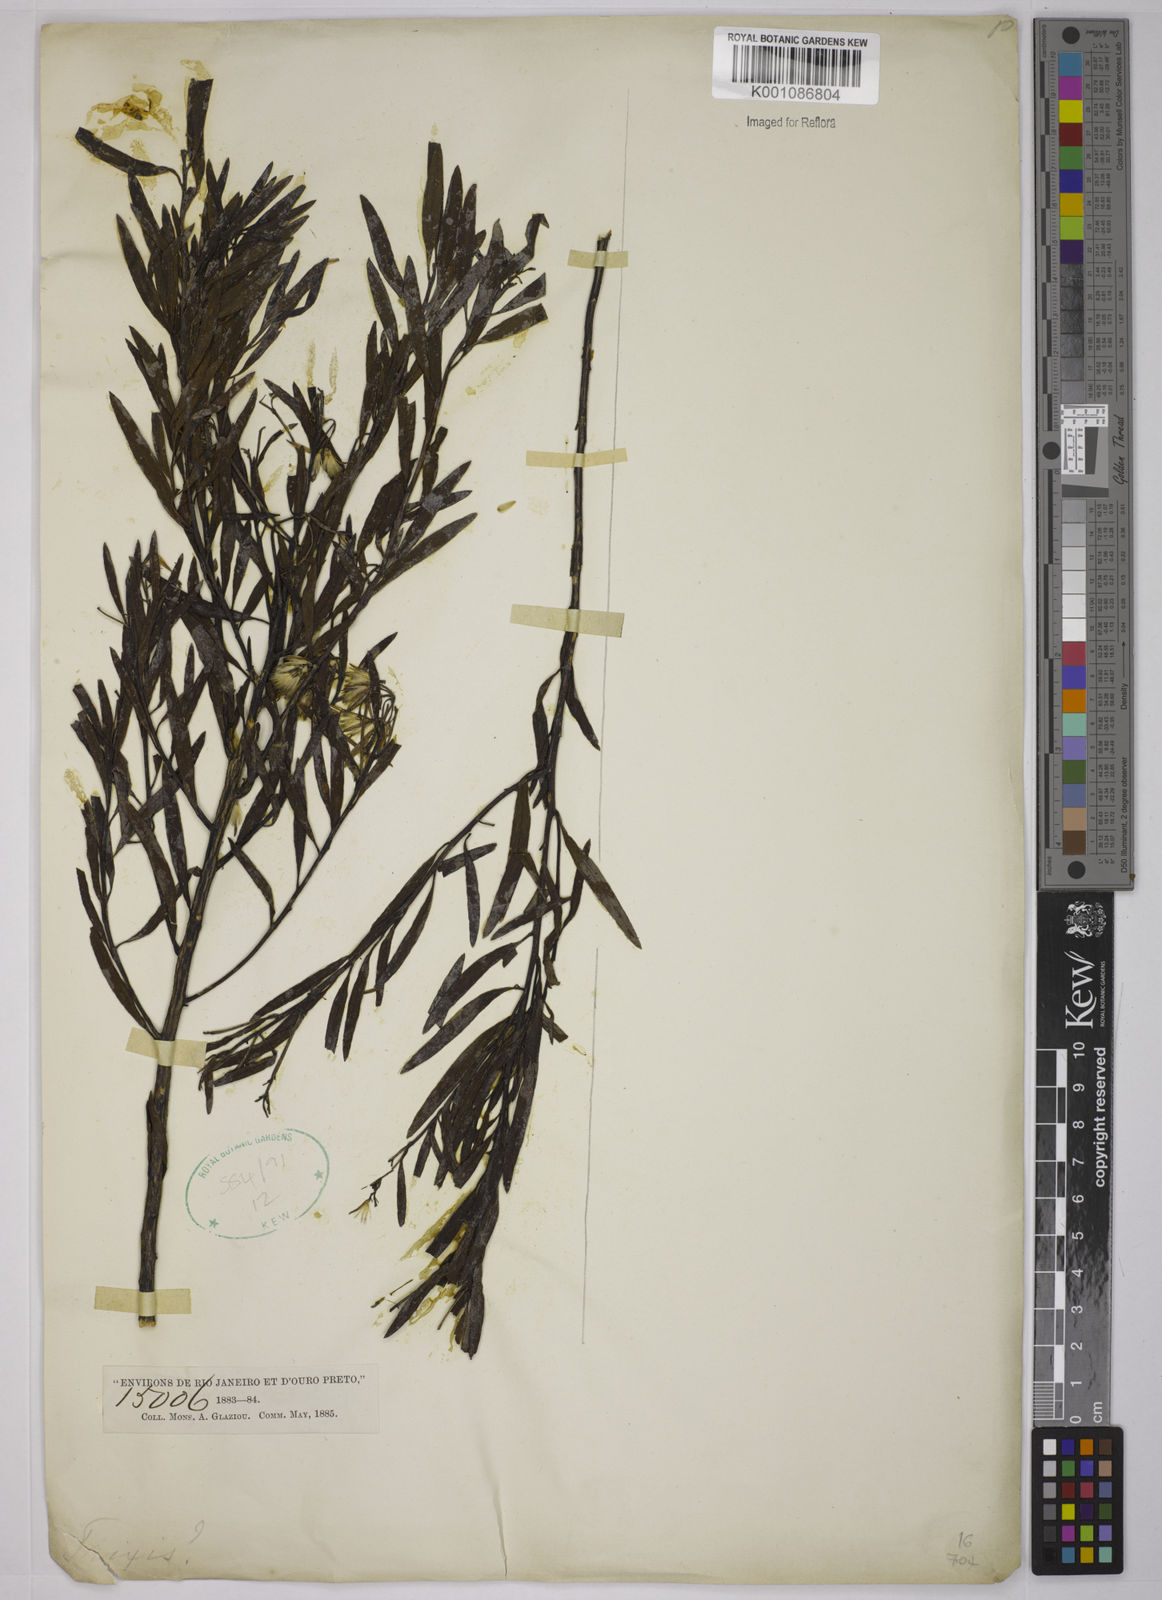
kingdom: Plantae
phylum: Tracheophyta
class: Magnoliopsida
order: Asterales
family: Asteraceae
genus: Trixis
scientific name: Trixis
